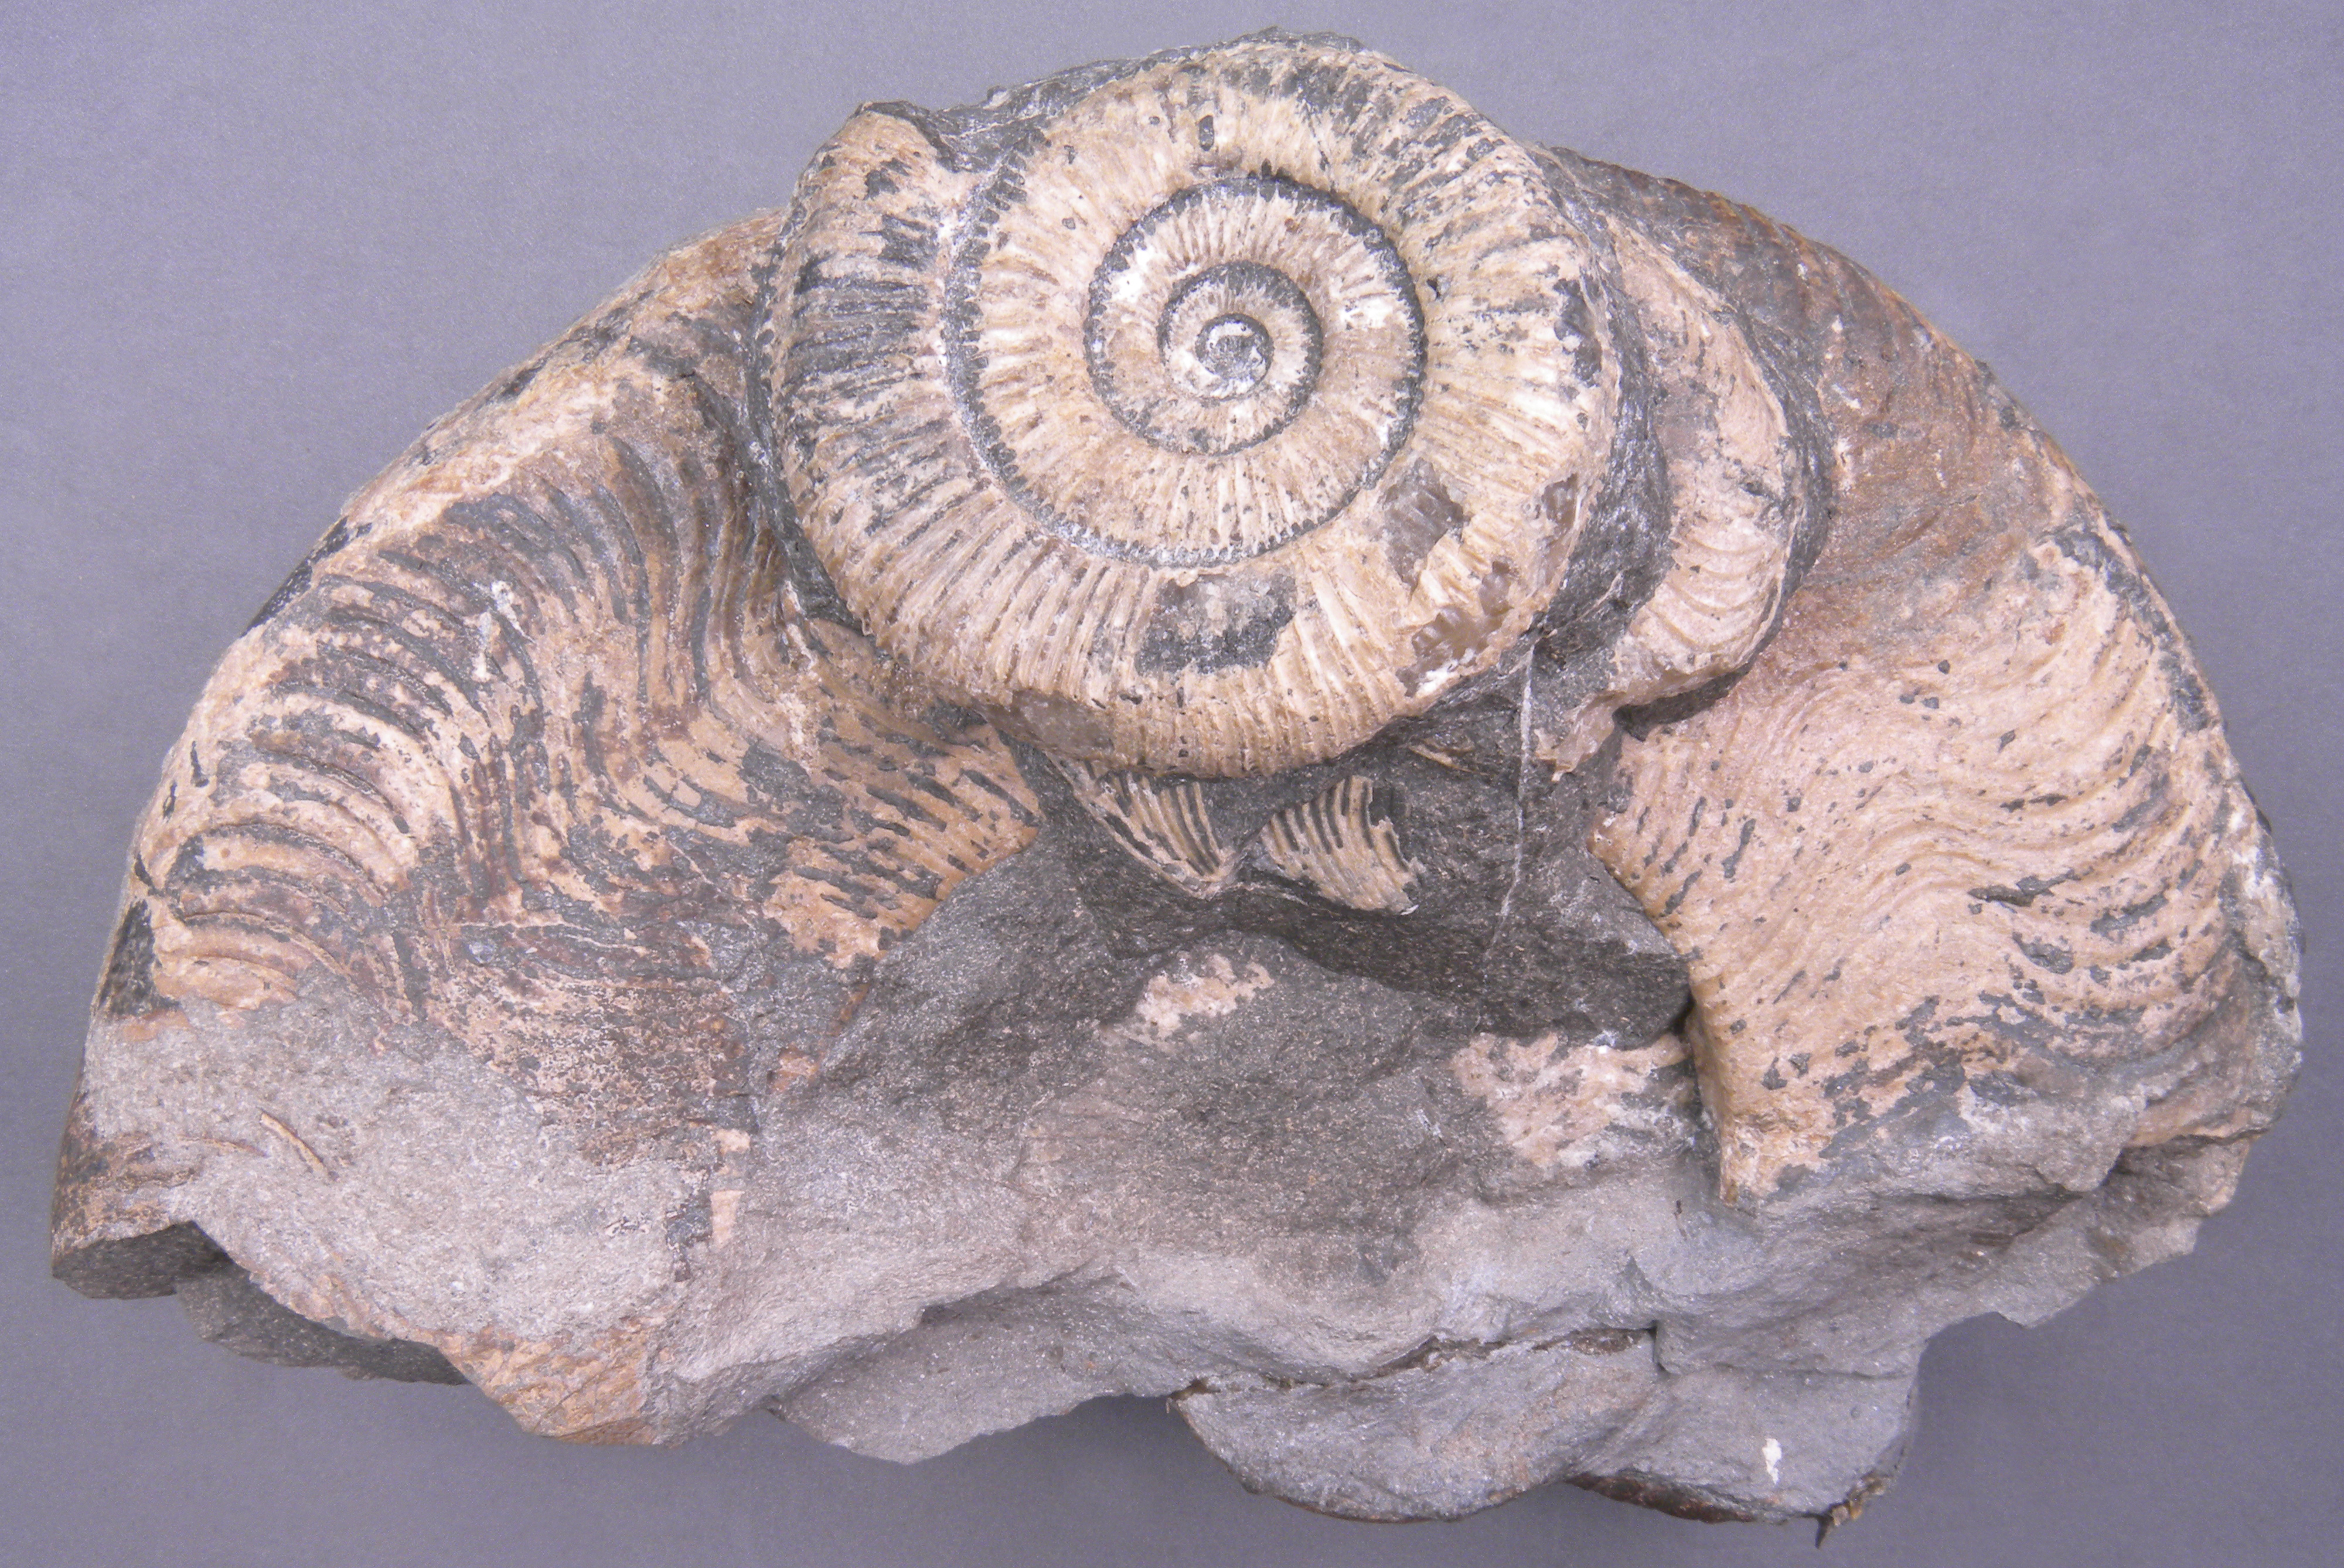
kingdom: Animalia
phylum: Mollusca
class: Cephalopoda
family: Hildoceratidae
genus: Harpoceras
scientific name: Harpoceras
